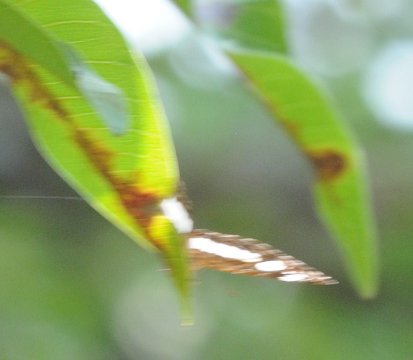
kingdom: Animalia
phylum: Arthropoda
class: Insecta
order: Lepidoptera
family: Nymphalidae
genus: Neptis
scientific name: Neptis saclava
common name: Spotted Sailer
